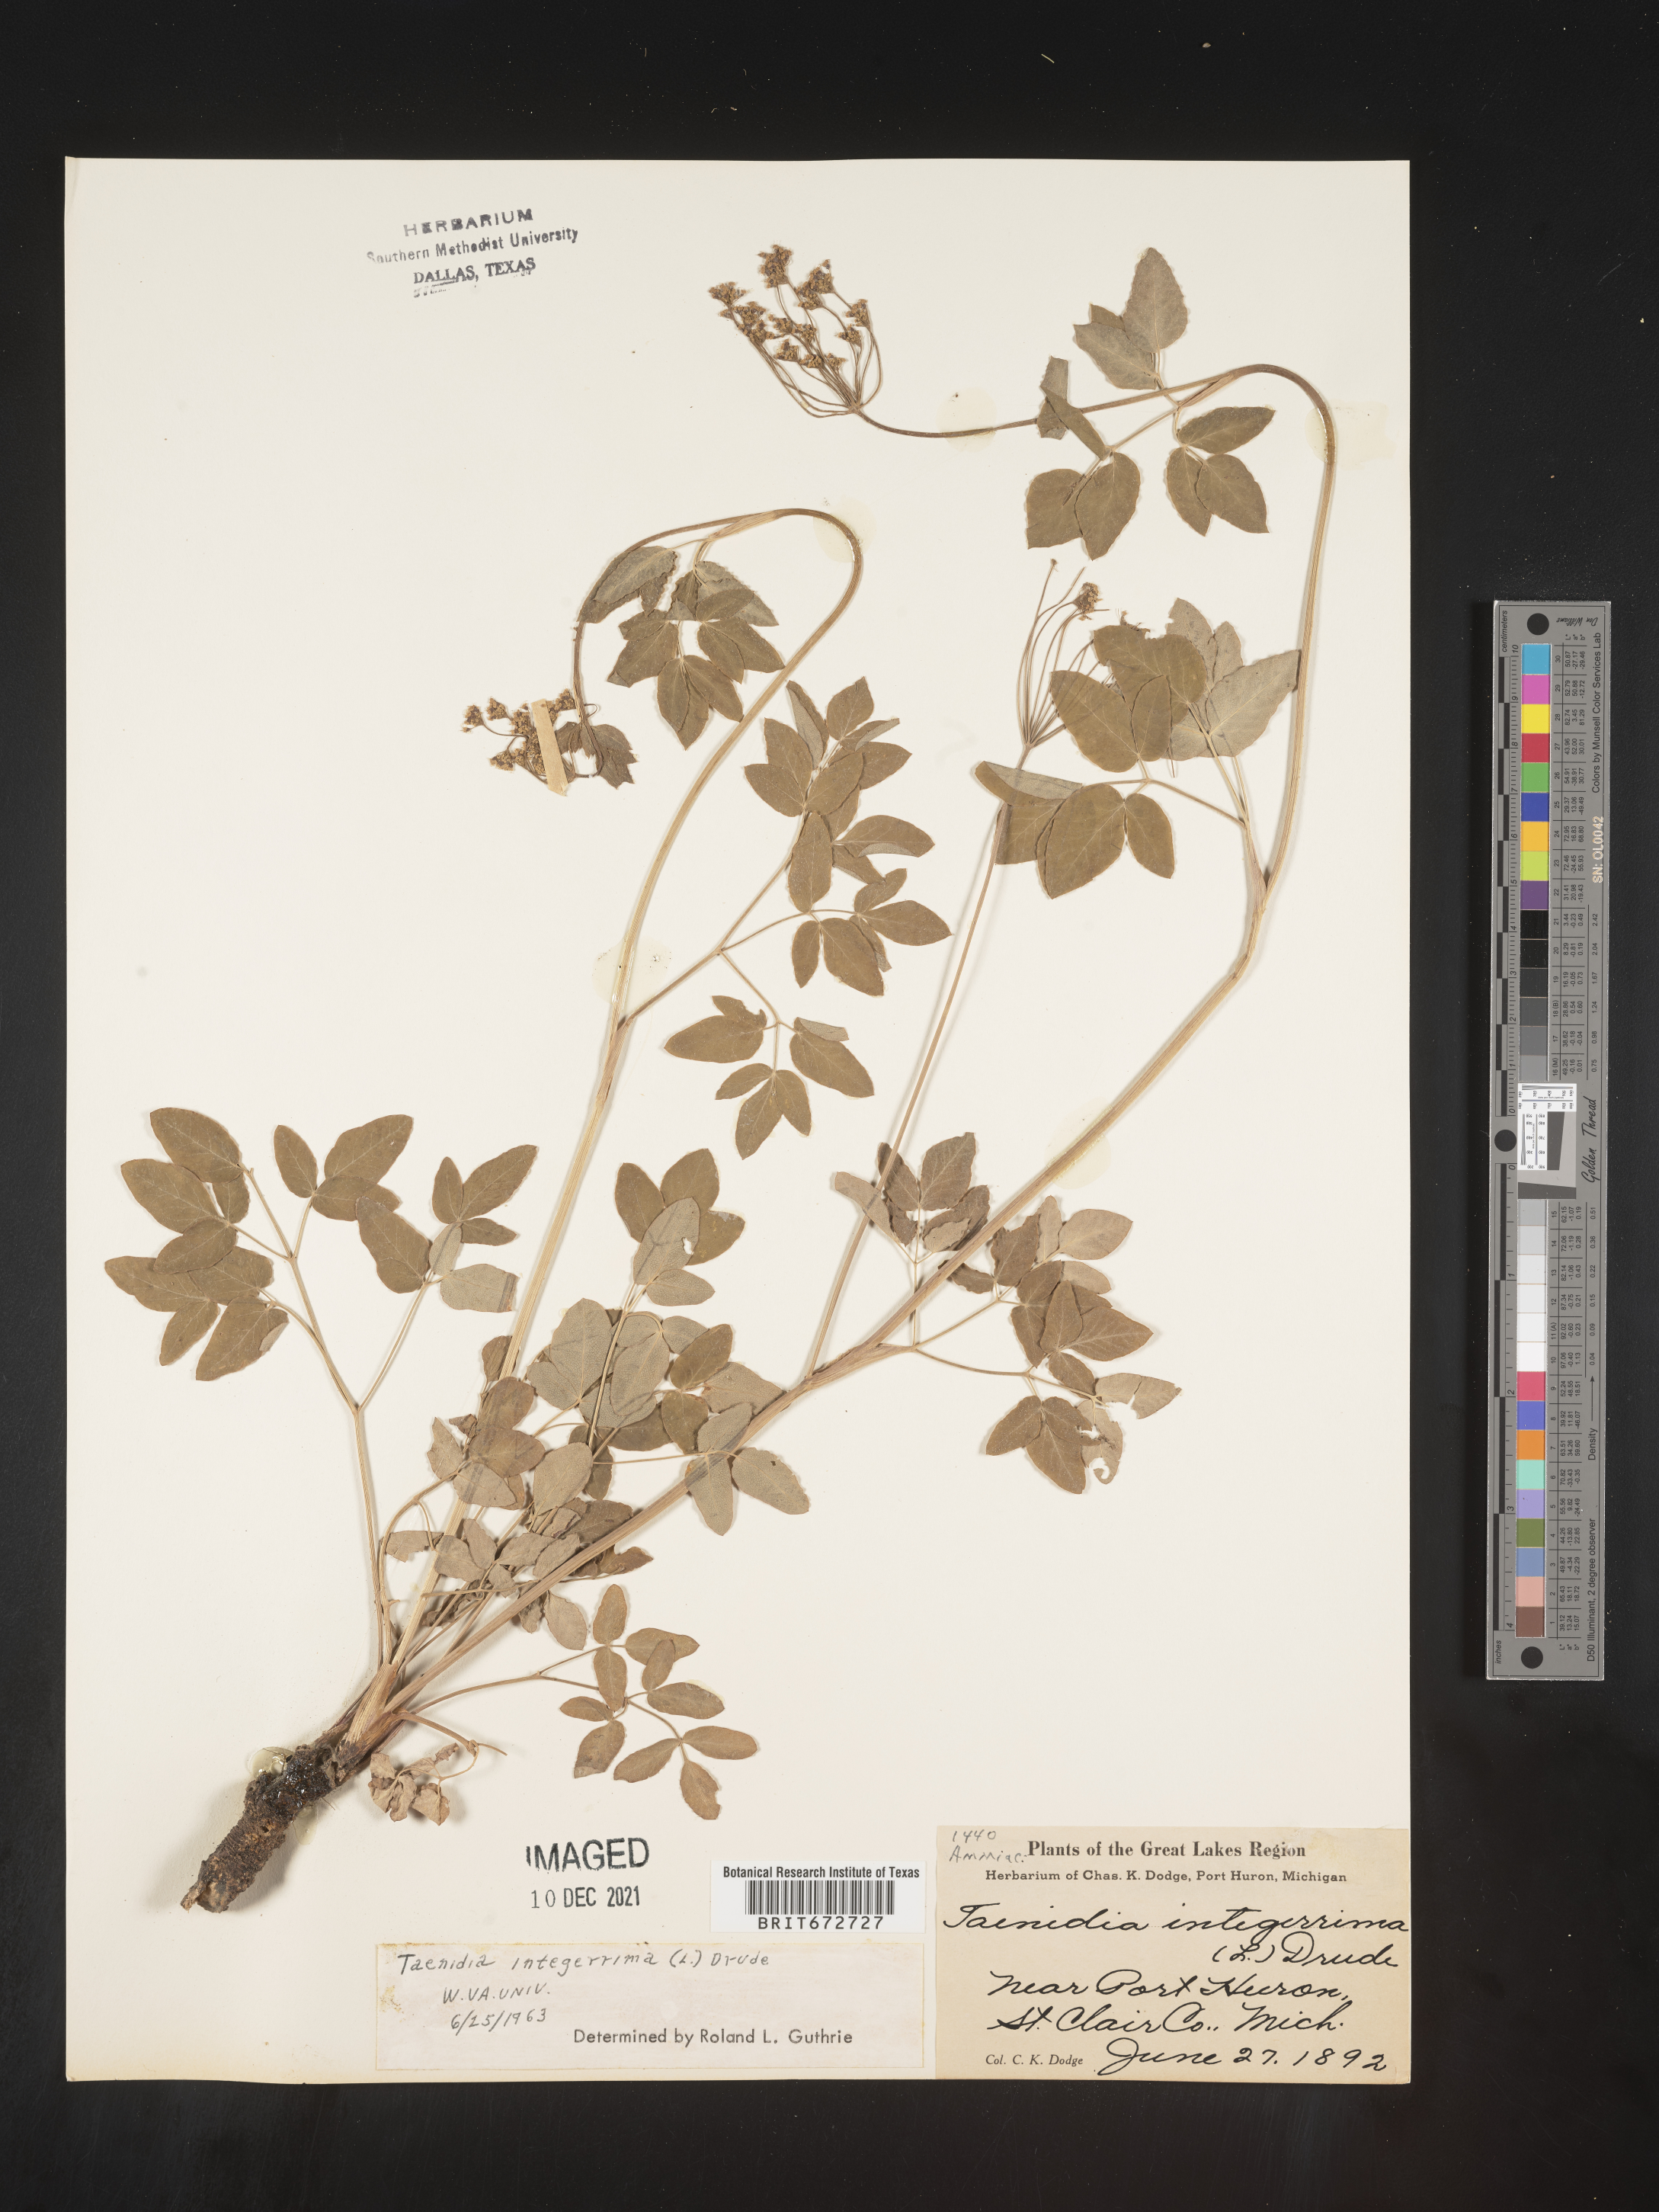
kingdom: Plantae
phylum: Tracheophyta
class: Magnoliopsida
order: Apiales
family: Apiaceae
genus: Taenidia
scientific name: Taenidia
